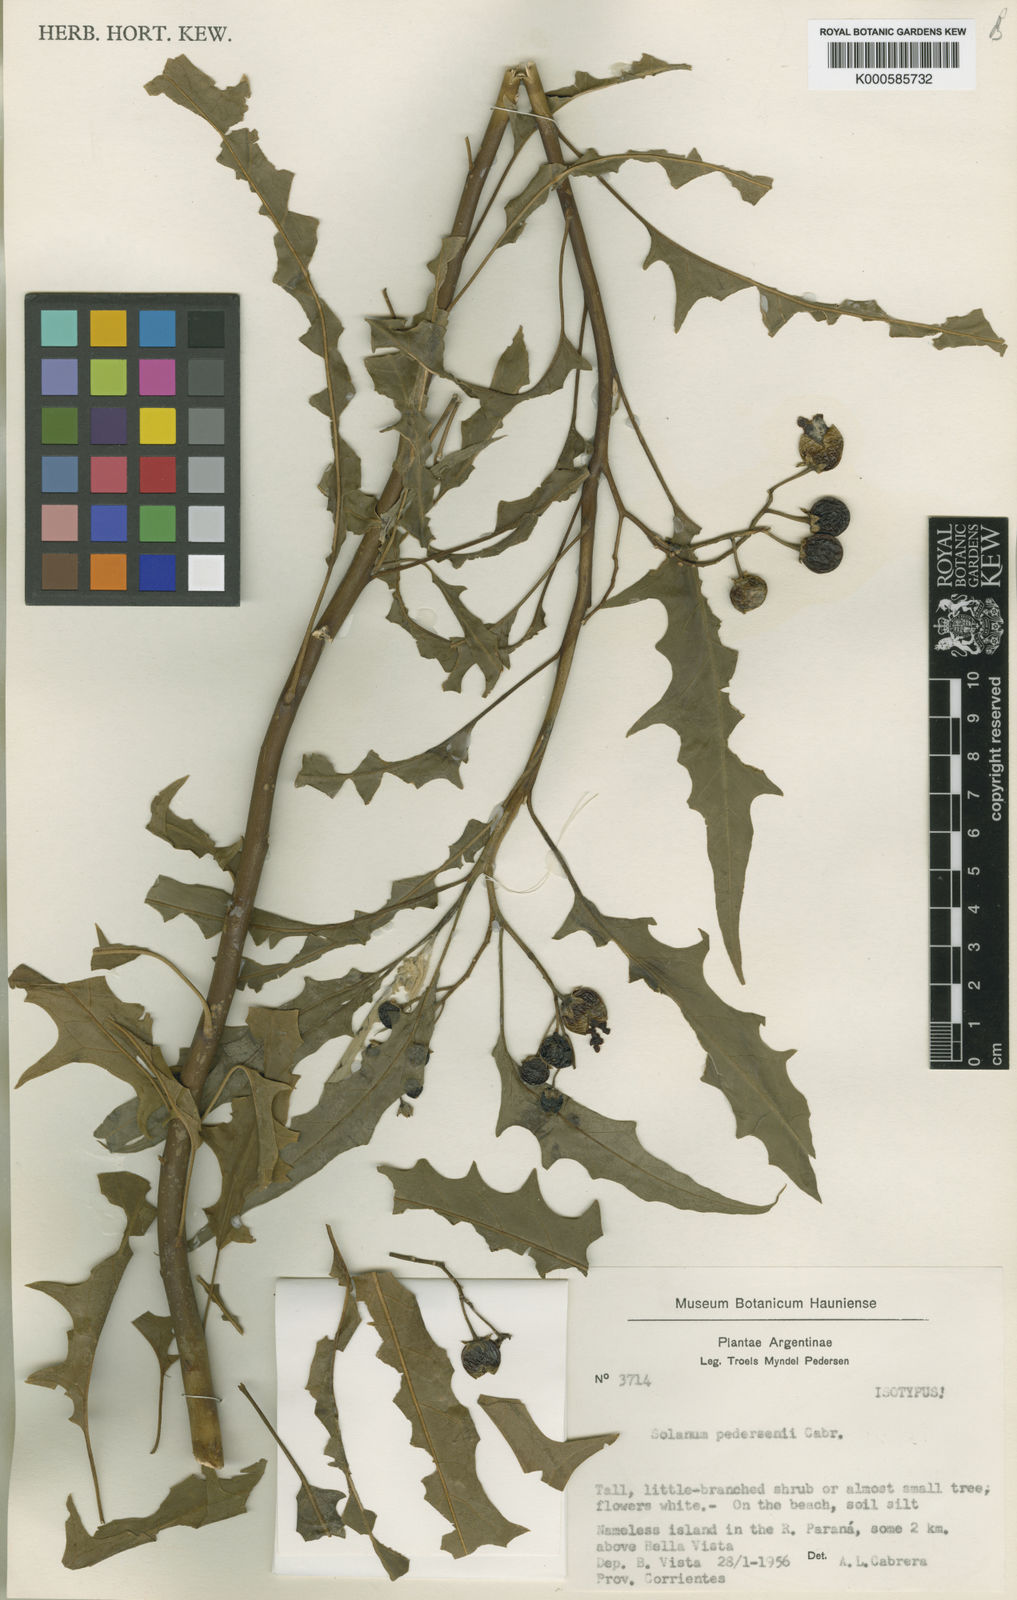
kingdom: Plantae
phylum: Tracheophyta
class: Magnoliopsida
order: Solanales
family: Solanaceae
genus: Solanum
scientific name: Solanum pedersenii
